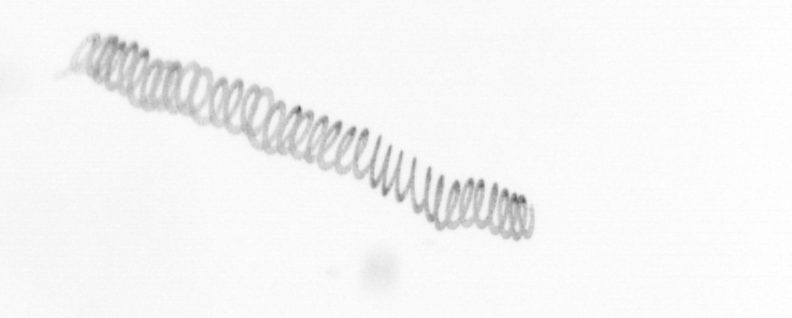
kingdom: Chromista
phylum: Ochrophyta
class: Bacillariophyceae
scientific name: Bacillariophyceae
